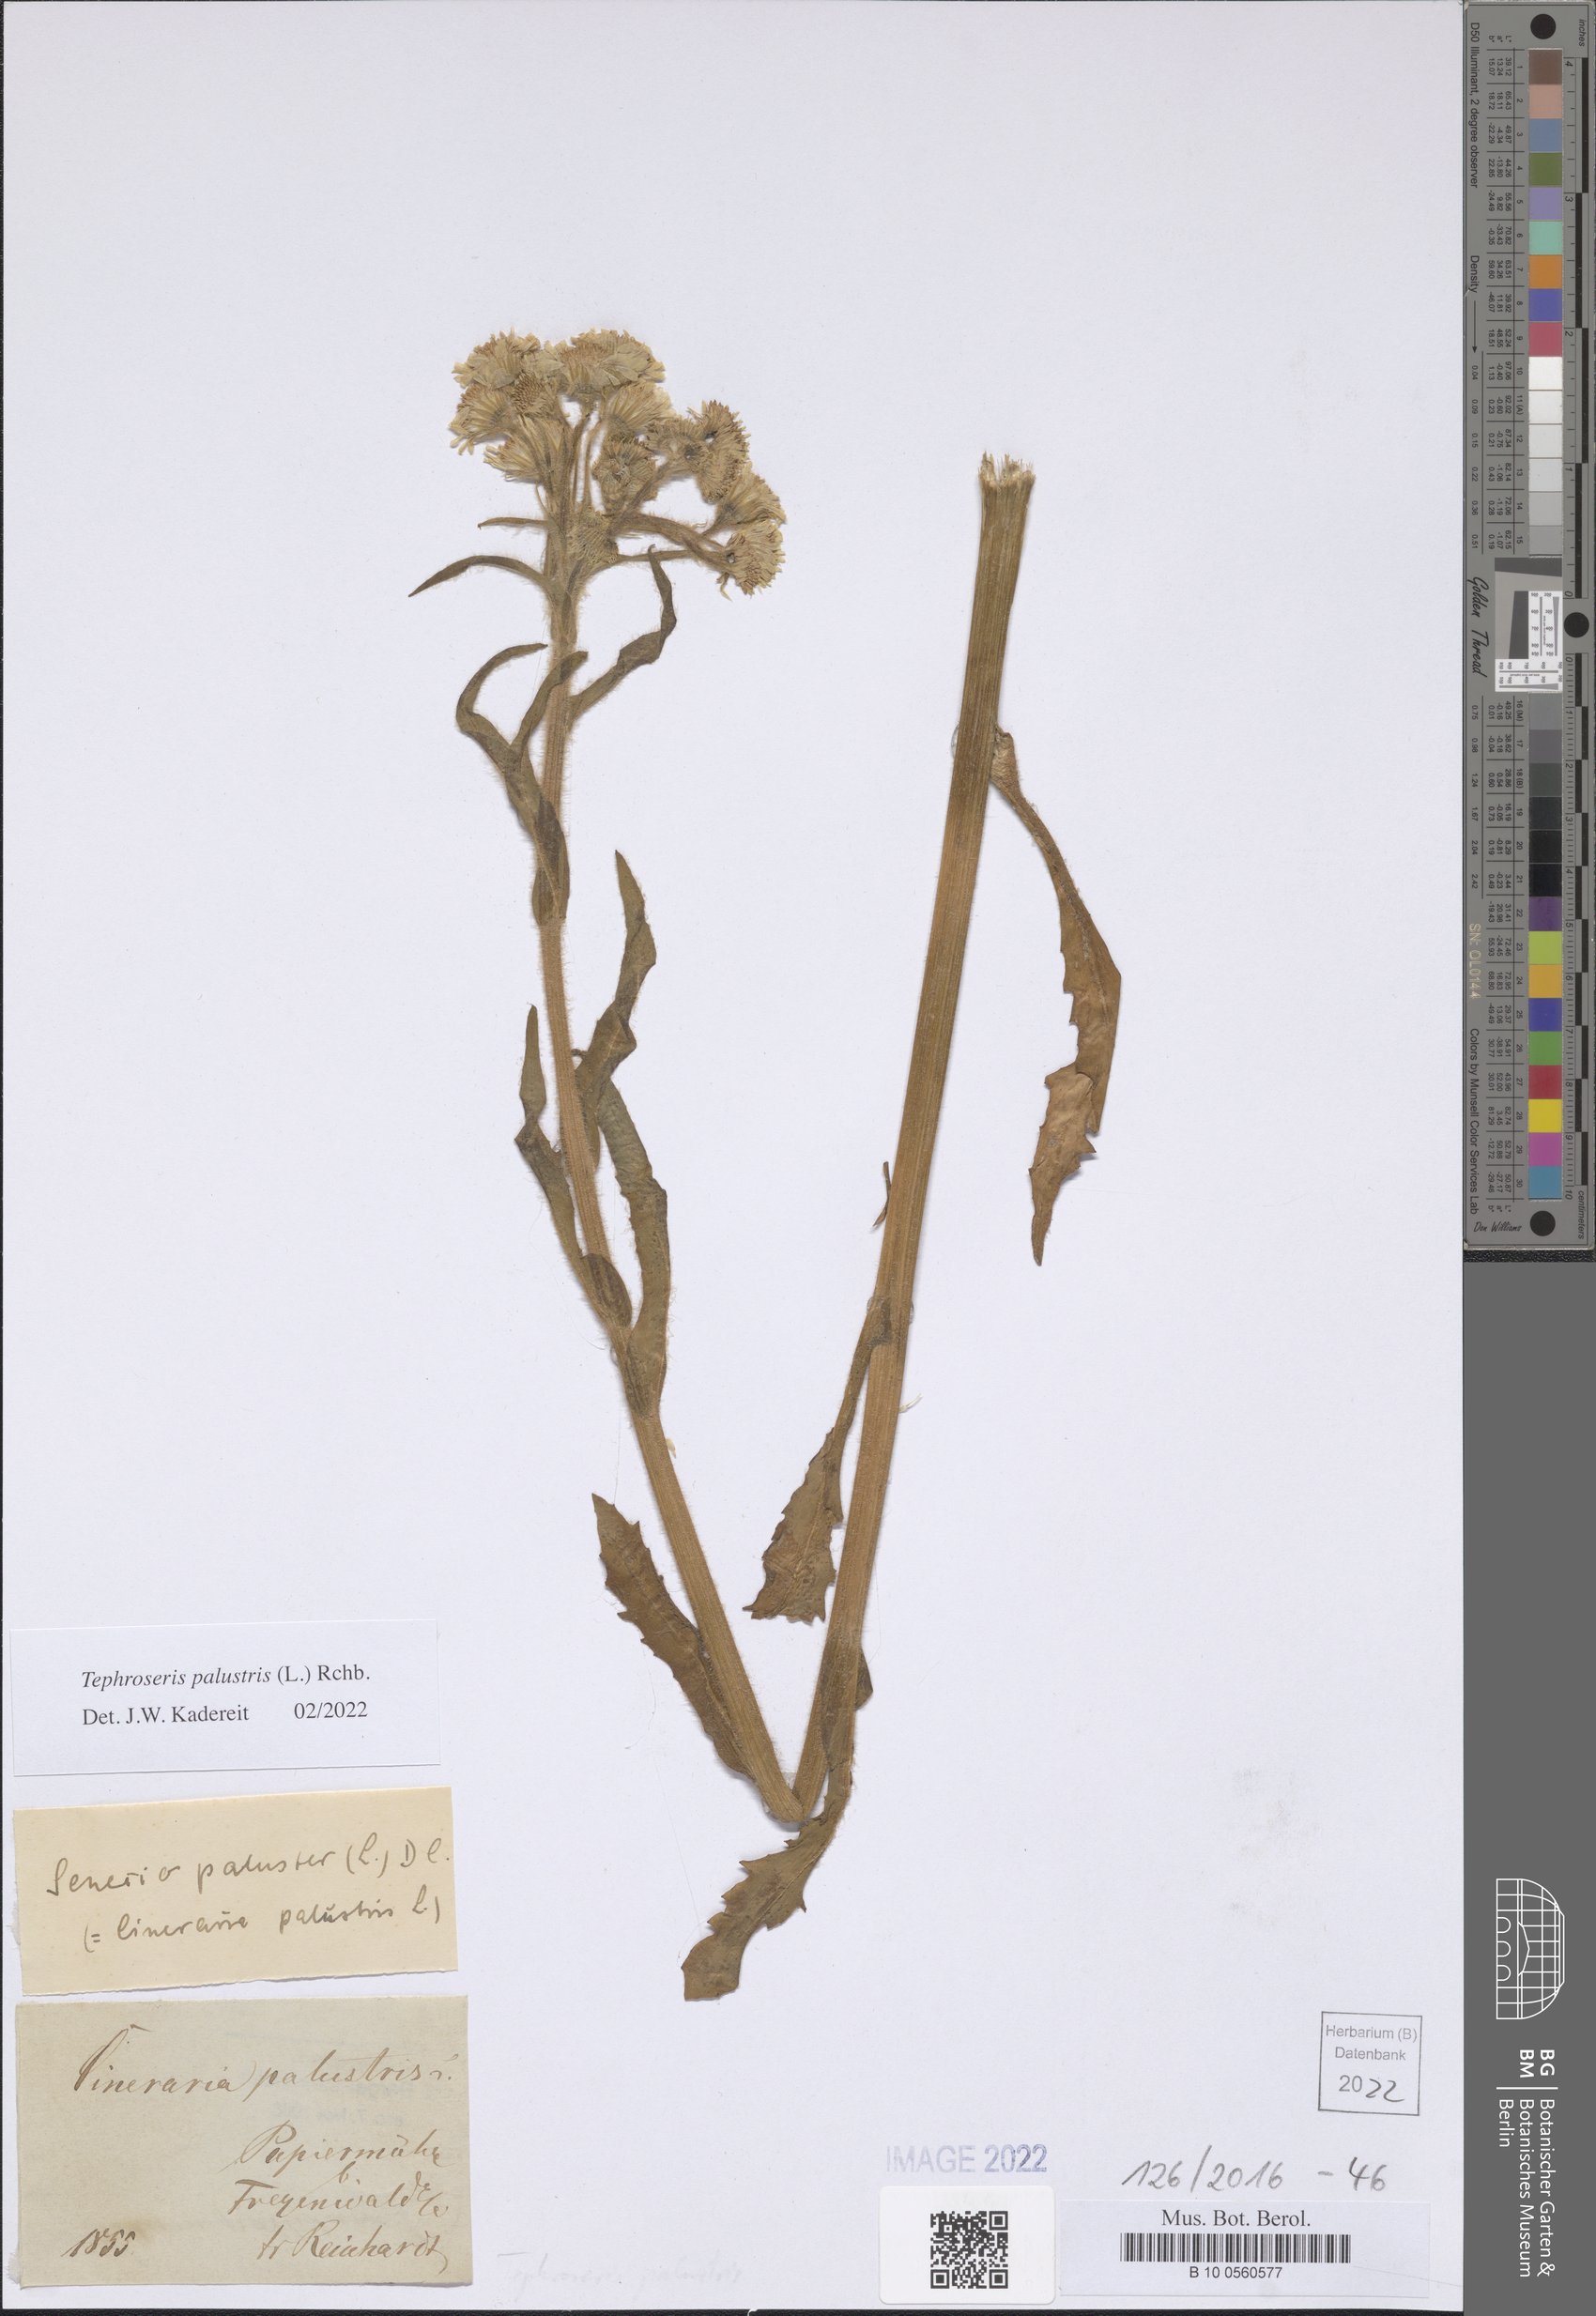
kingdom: Plantae
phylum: Tracheophyta
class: Magnoliopsida
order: Asterales
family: Asteraceae
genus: Tephroseris
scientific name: Tephroseris palustris
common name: Marsh fleawort
